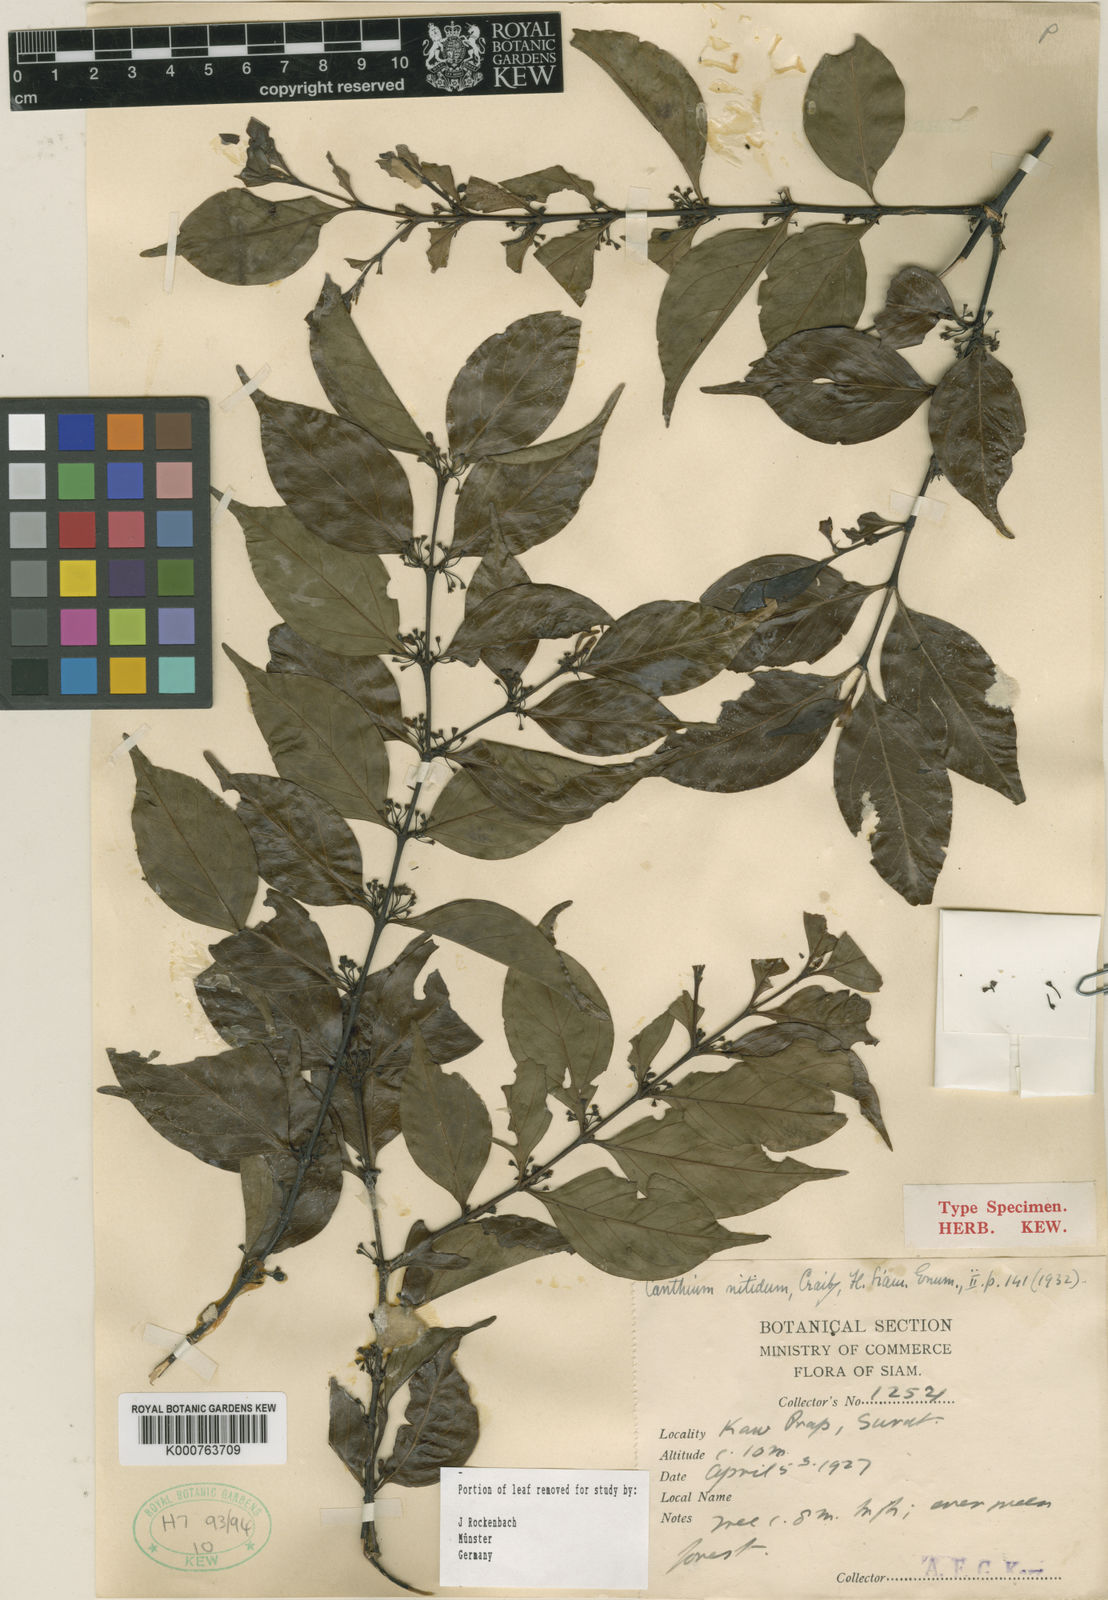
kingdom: Plantae
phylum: Tracheophyta
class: Magnoliopsida
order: Gentianales
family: Rubiaceae
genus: Psydrax
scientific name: Psydrax nitidus
